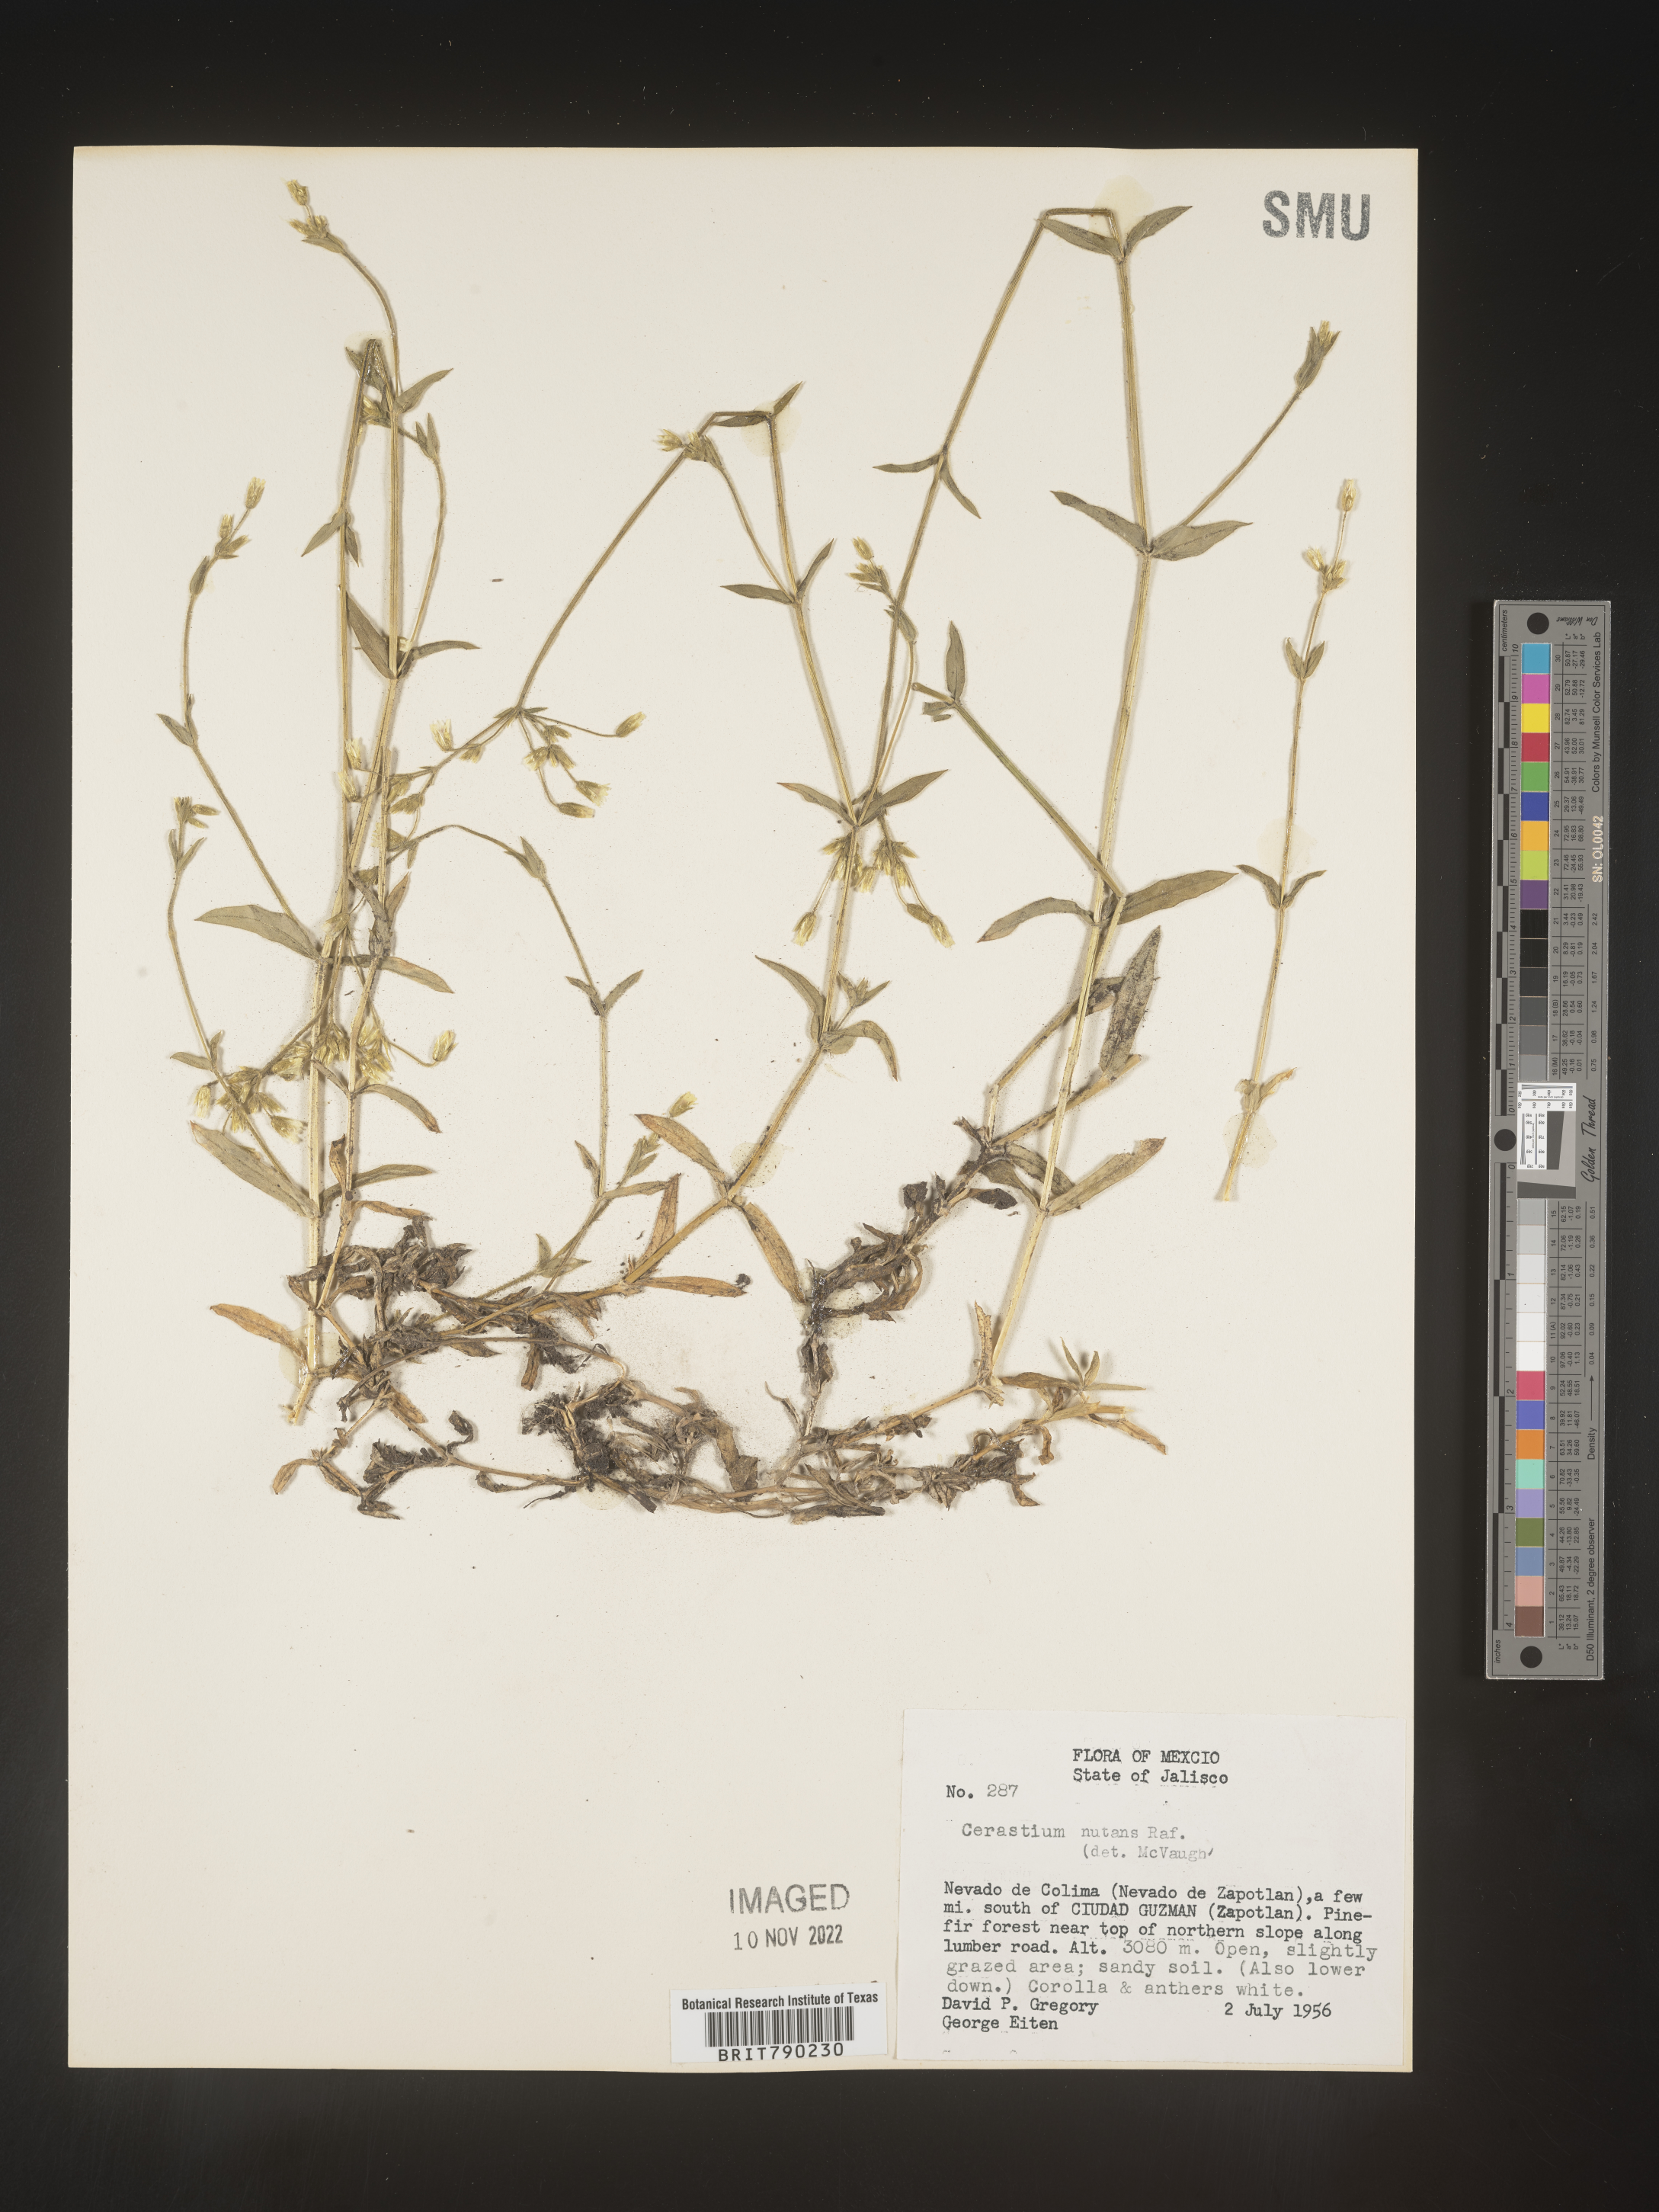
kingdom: Plantae
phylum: Tracheophyta
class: Magnoliopsida
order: Caryophyllales
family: Caryophyllaceae
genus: Cerastium
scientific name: Cerastium
